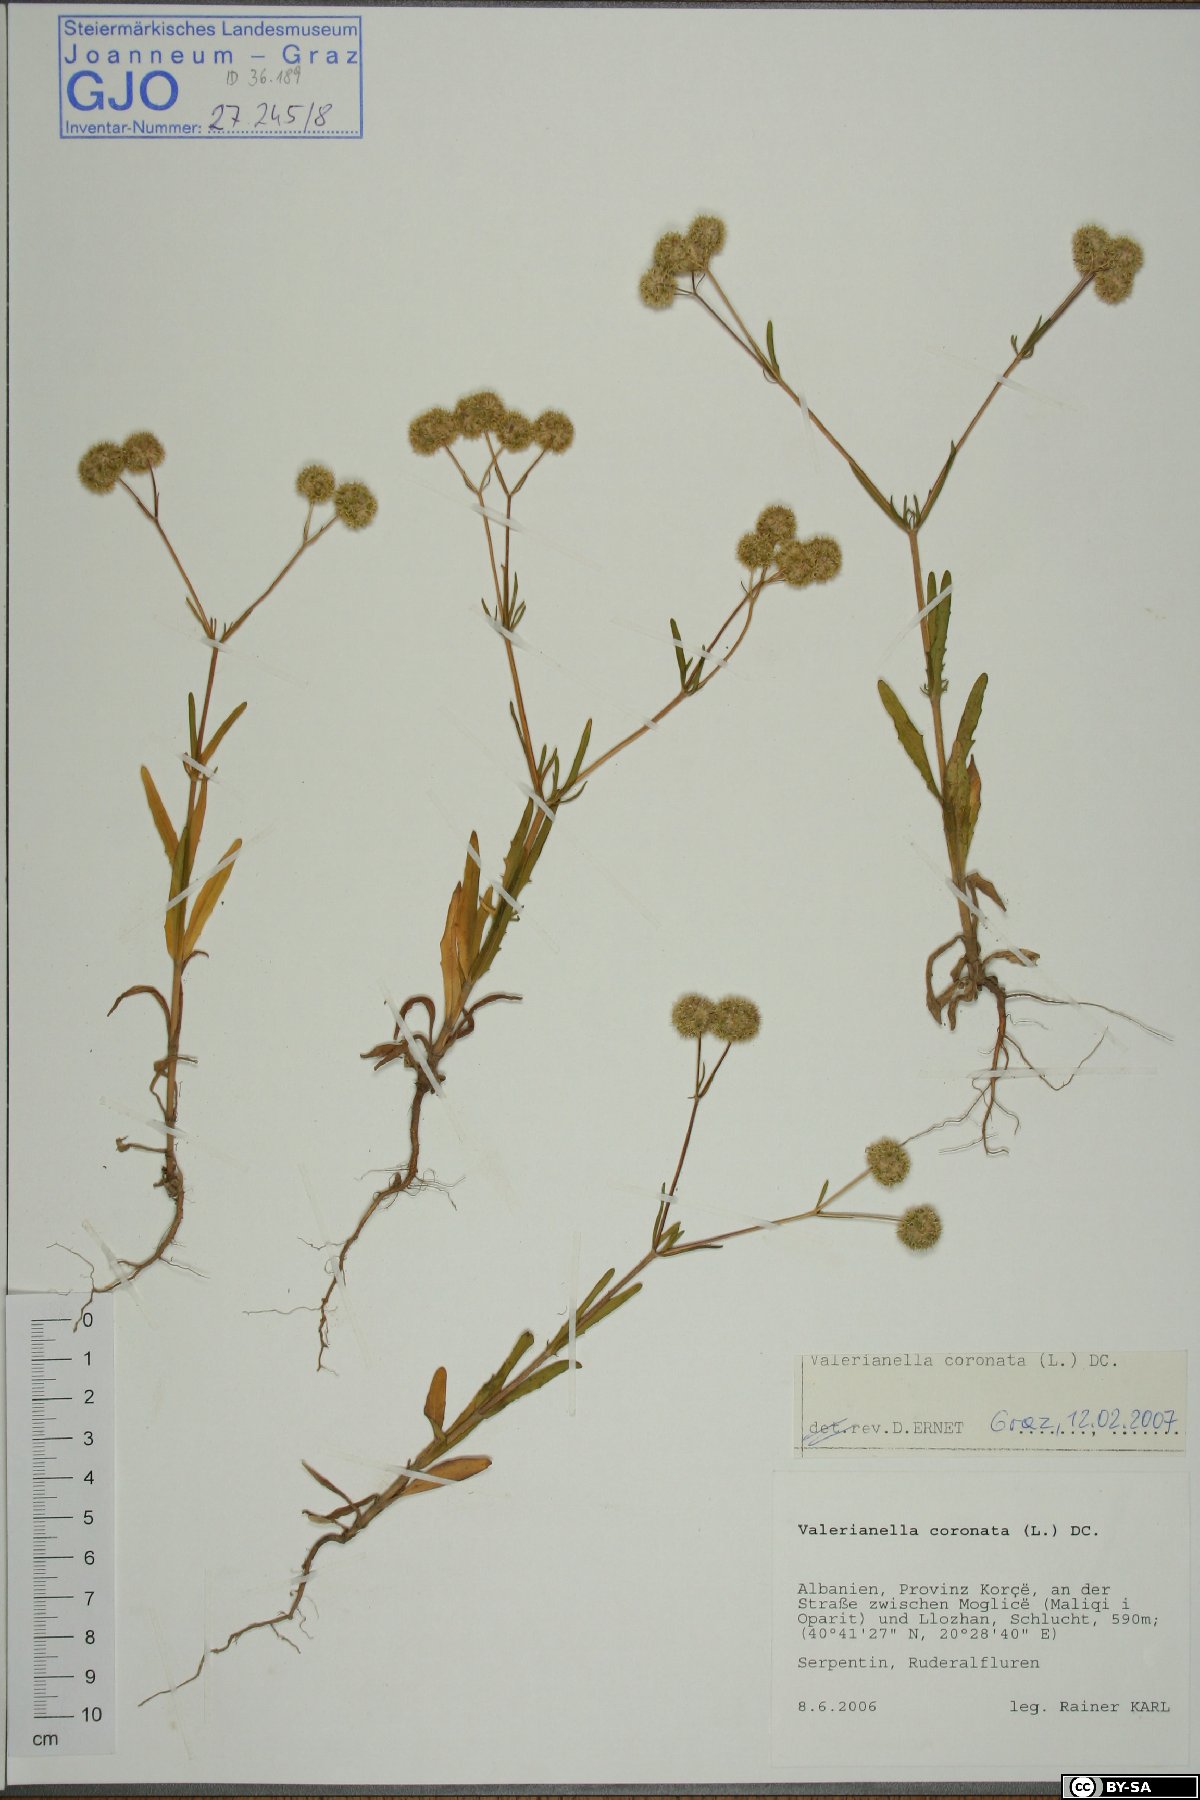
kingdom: Plantae
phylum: Tracheophyta
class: Magnoliopsida
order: Dipsacales
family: Caprifoliaceae
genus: Valerianella
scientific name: Valerianella coronata
